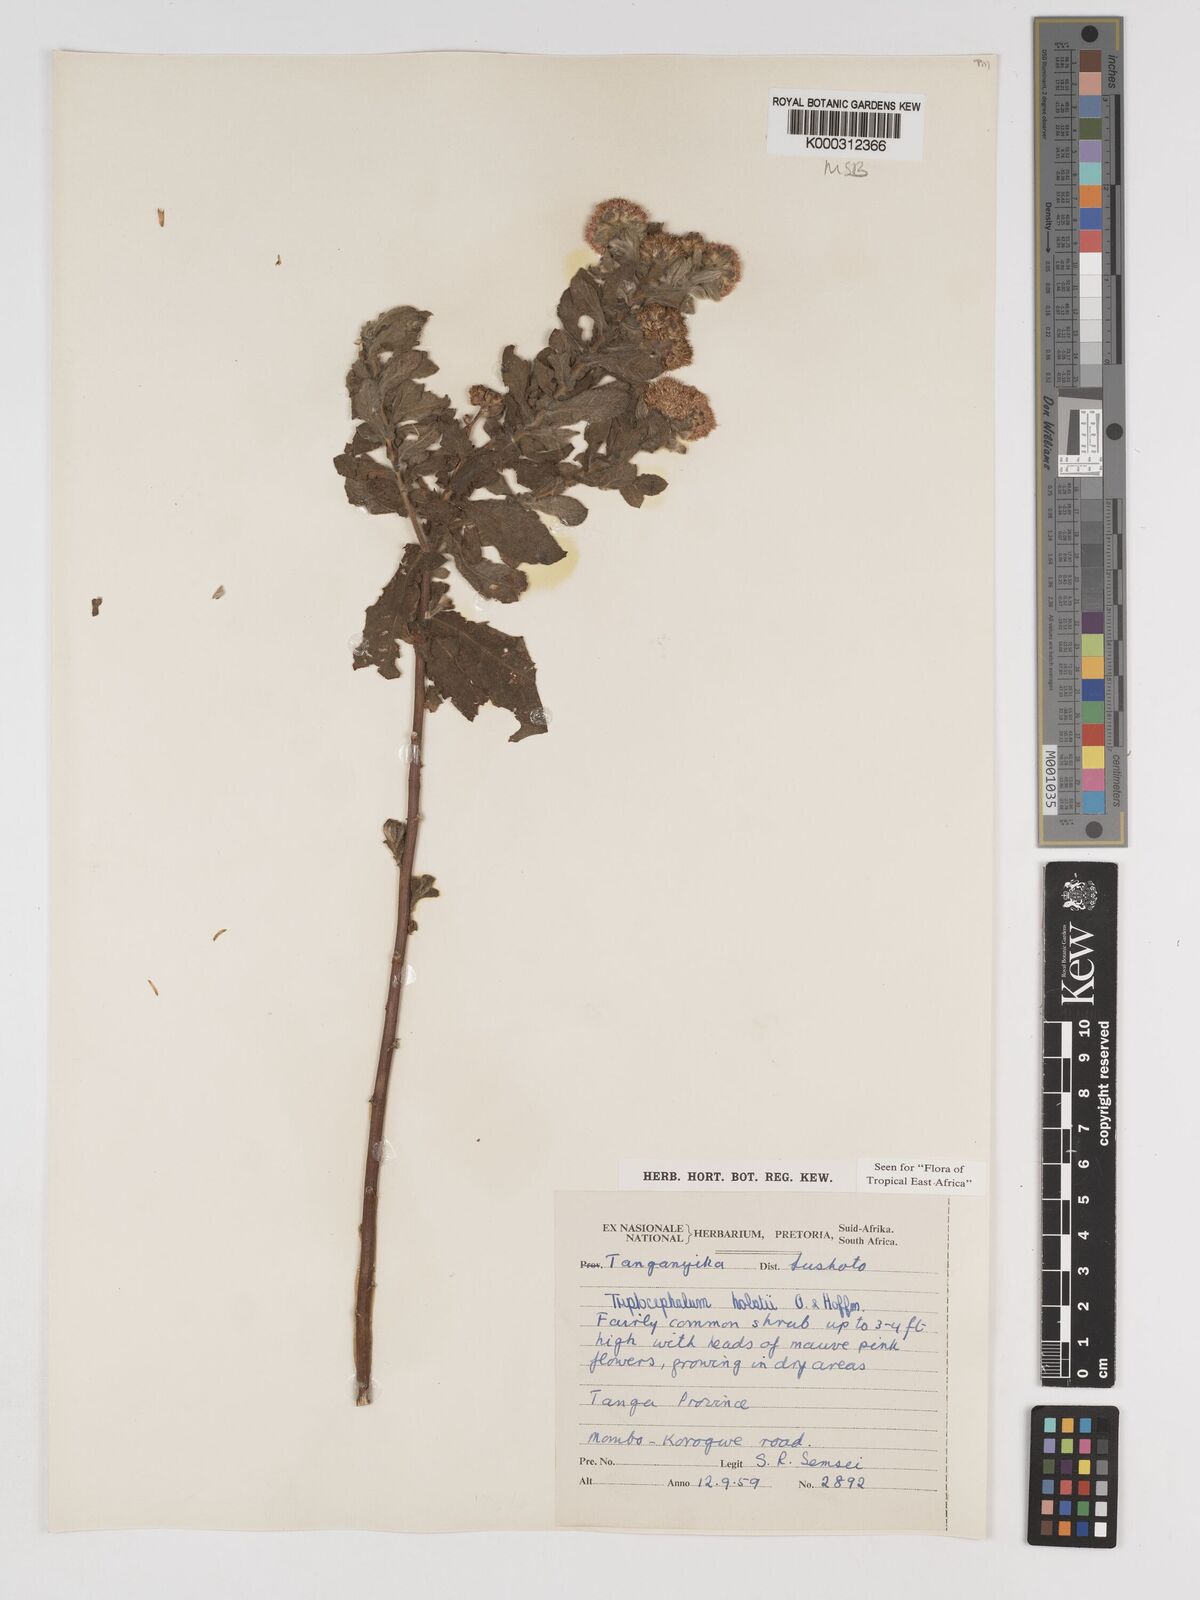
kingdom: Plantae
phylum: Tracheophyta
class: Magnoliopsida
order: Asterales
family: Asteraceae
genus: Triplocephalum
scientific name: Triplocephalum holstii
